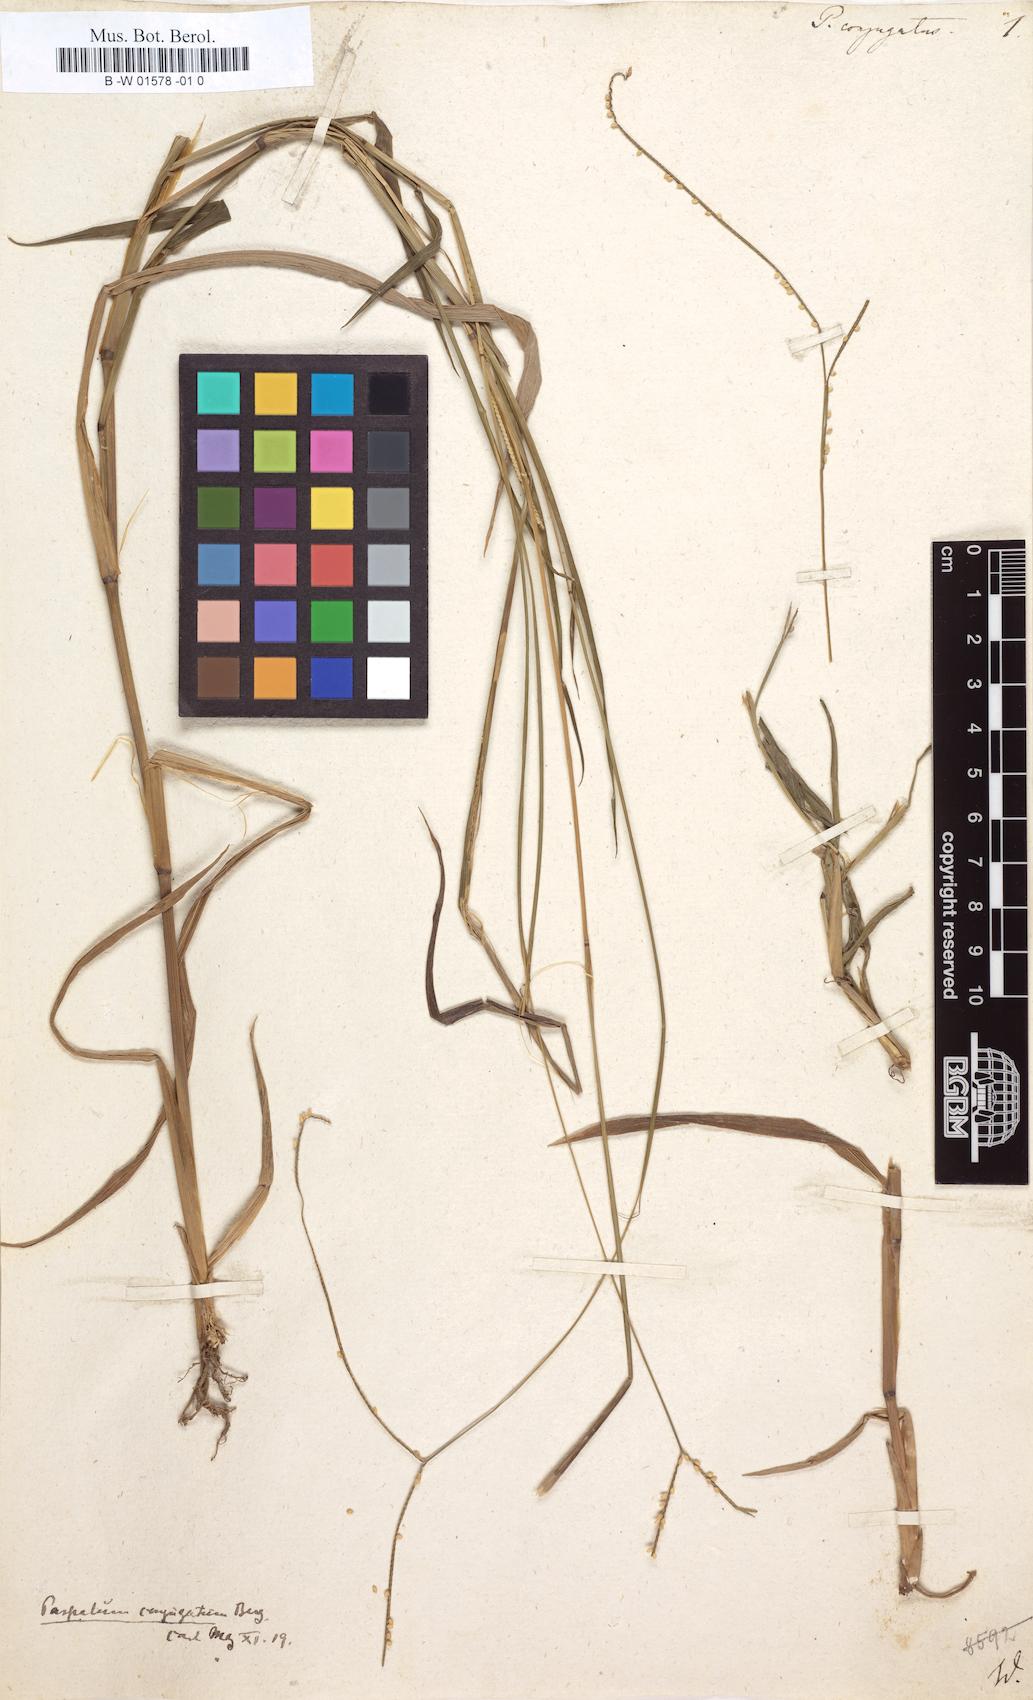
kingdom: Plantae
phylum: Tracheophyta
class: Liliopsida
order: Poales
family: Poaceae
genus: Paspalum
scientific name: Paspalum conjugatum
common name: Hilograss
